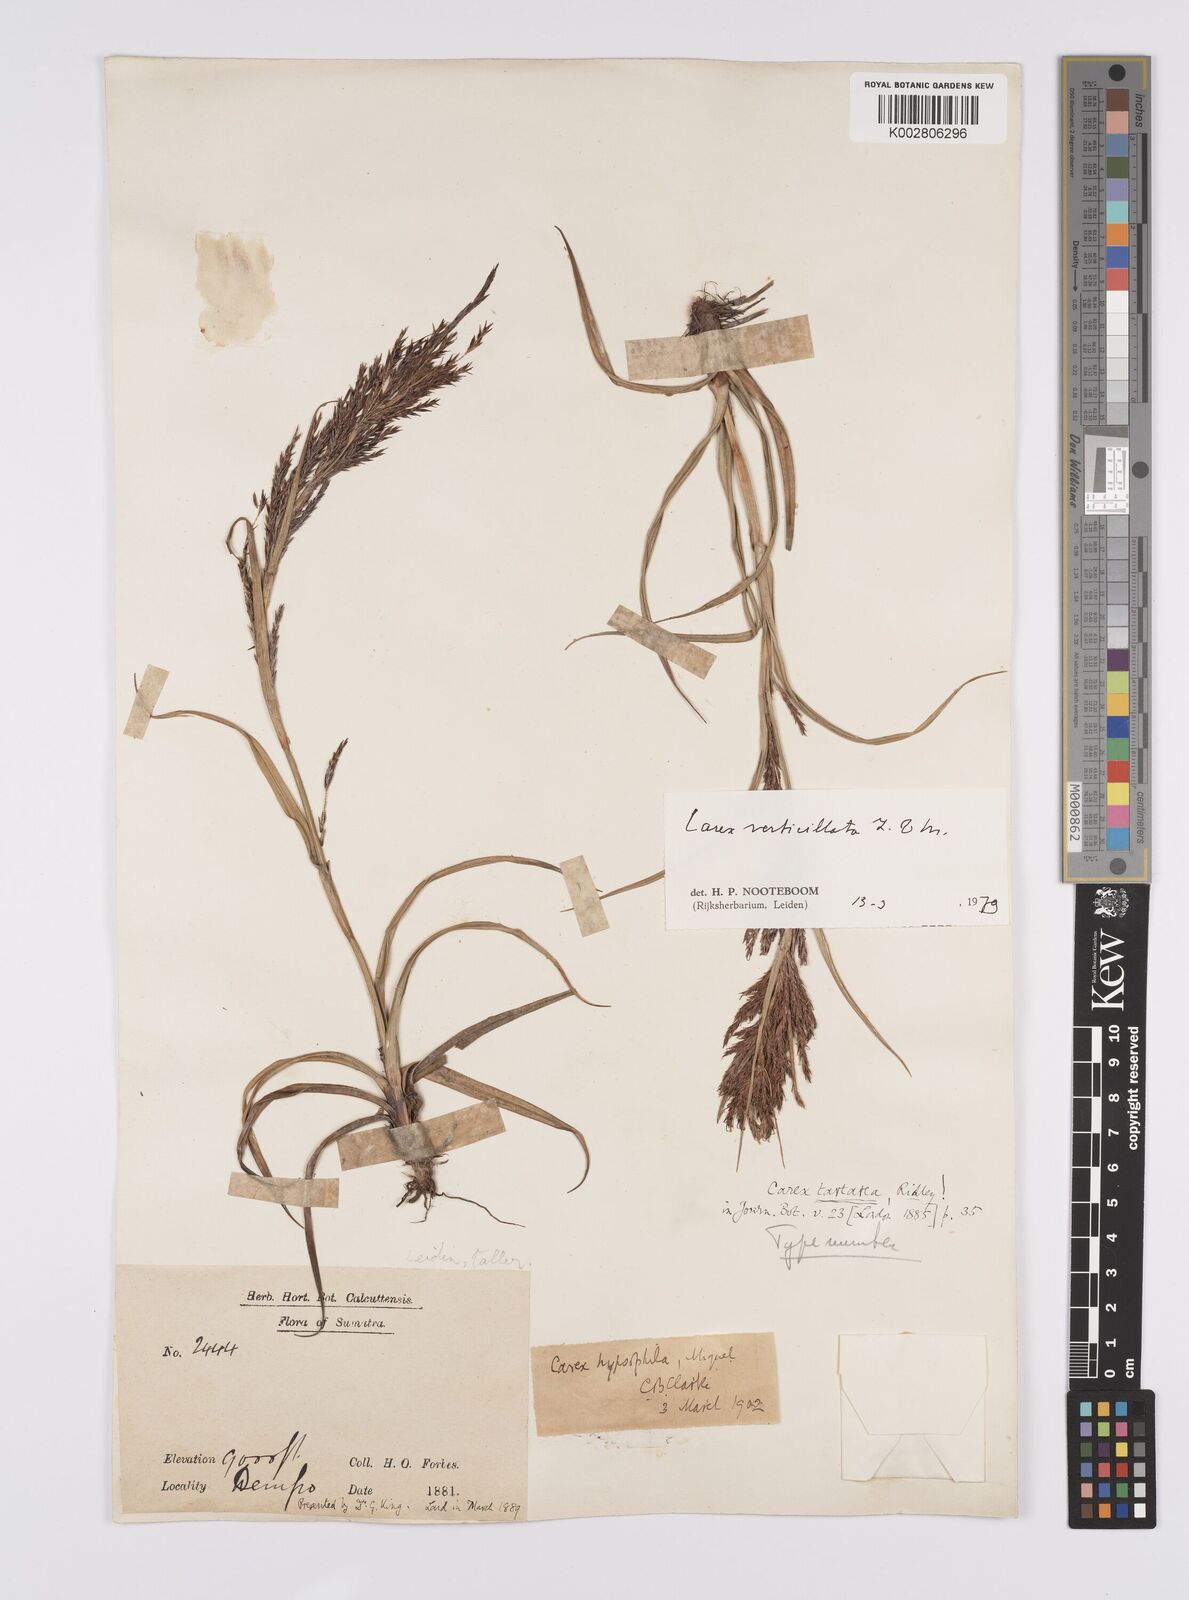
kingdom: Plantae
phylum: Tracheophyta
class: Liliopsida
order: Poales
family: Cyperaceae
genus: Carex
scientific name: Carex verticillata
